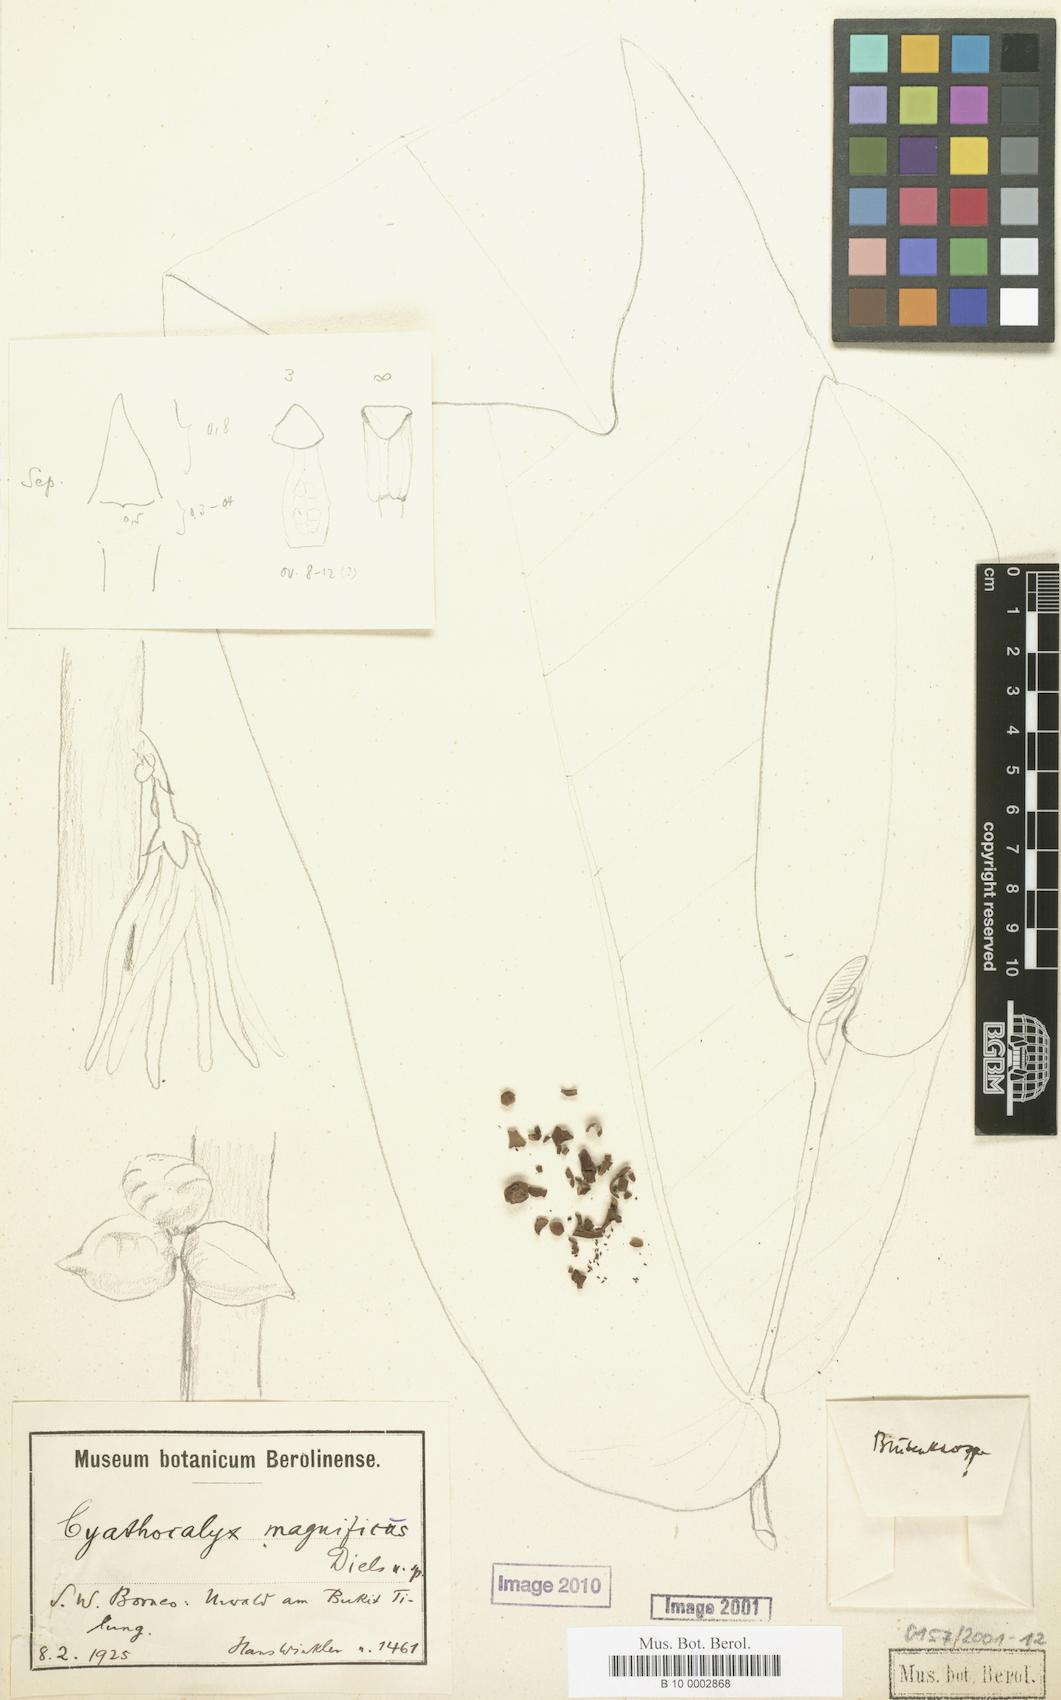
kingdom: Plantae
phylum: Tracheophyta
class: Magnoliopsida
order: Magnoliales
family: Annonaceae
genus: Drepananthus
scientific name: Drepananthus magnificus
